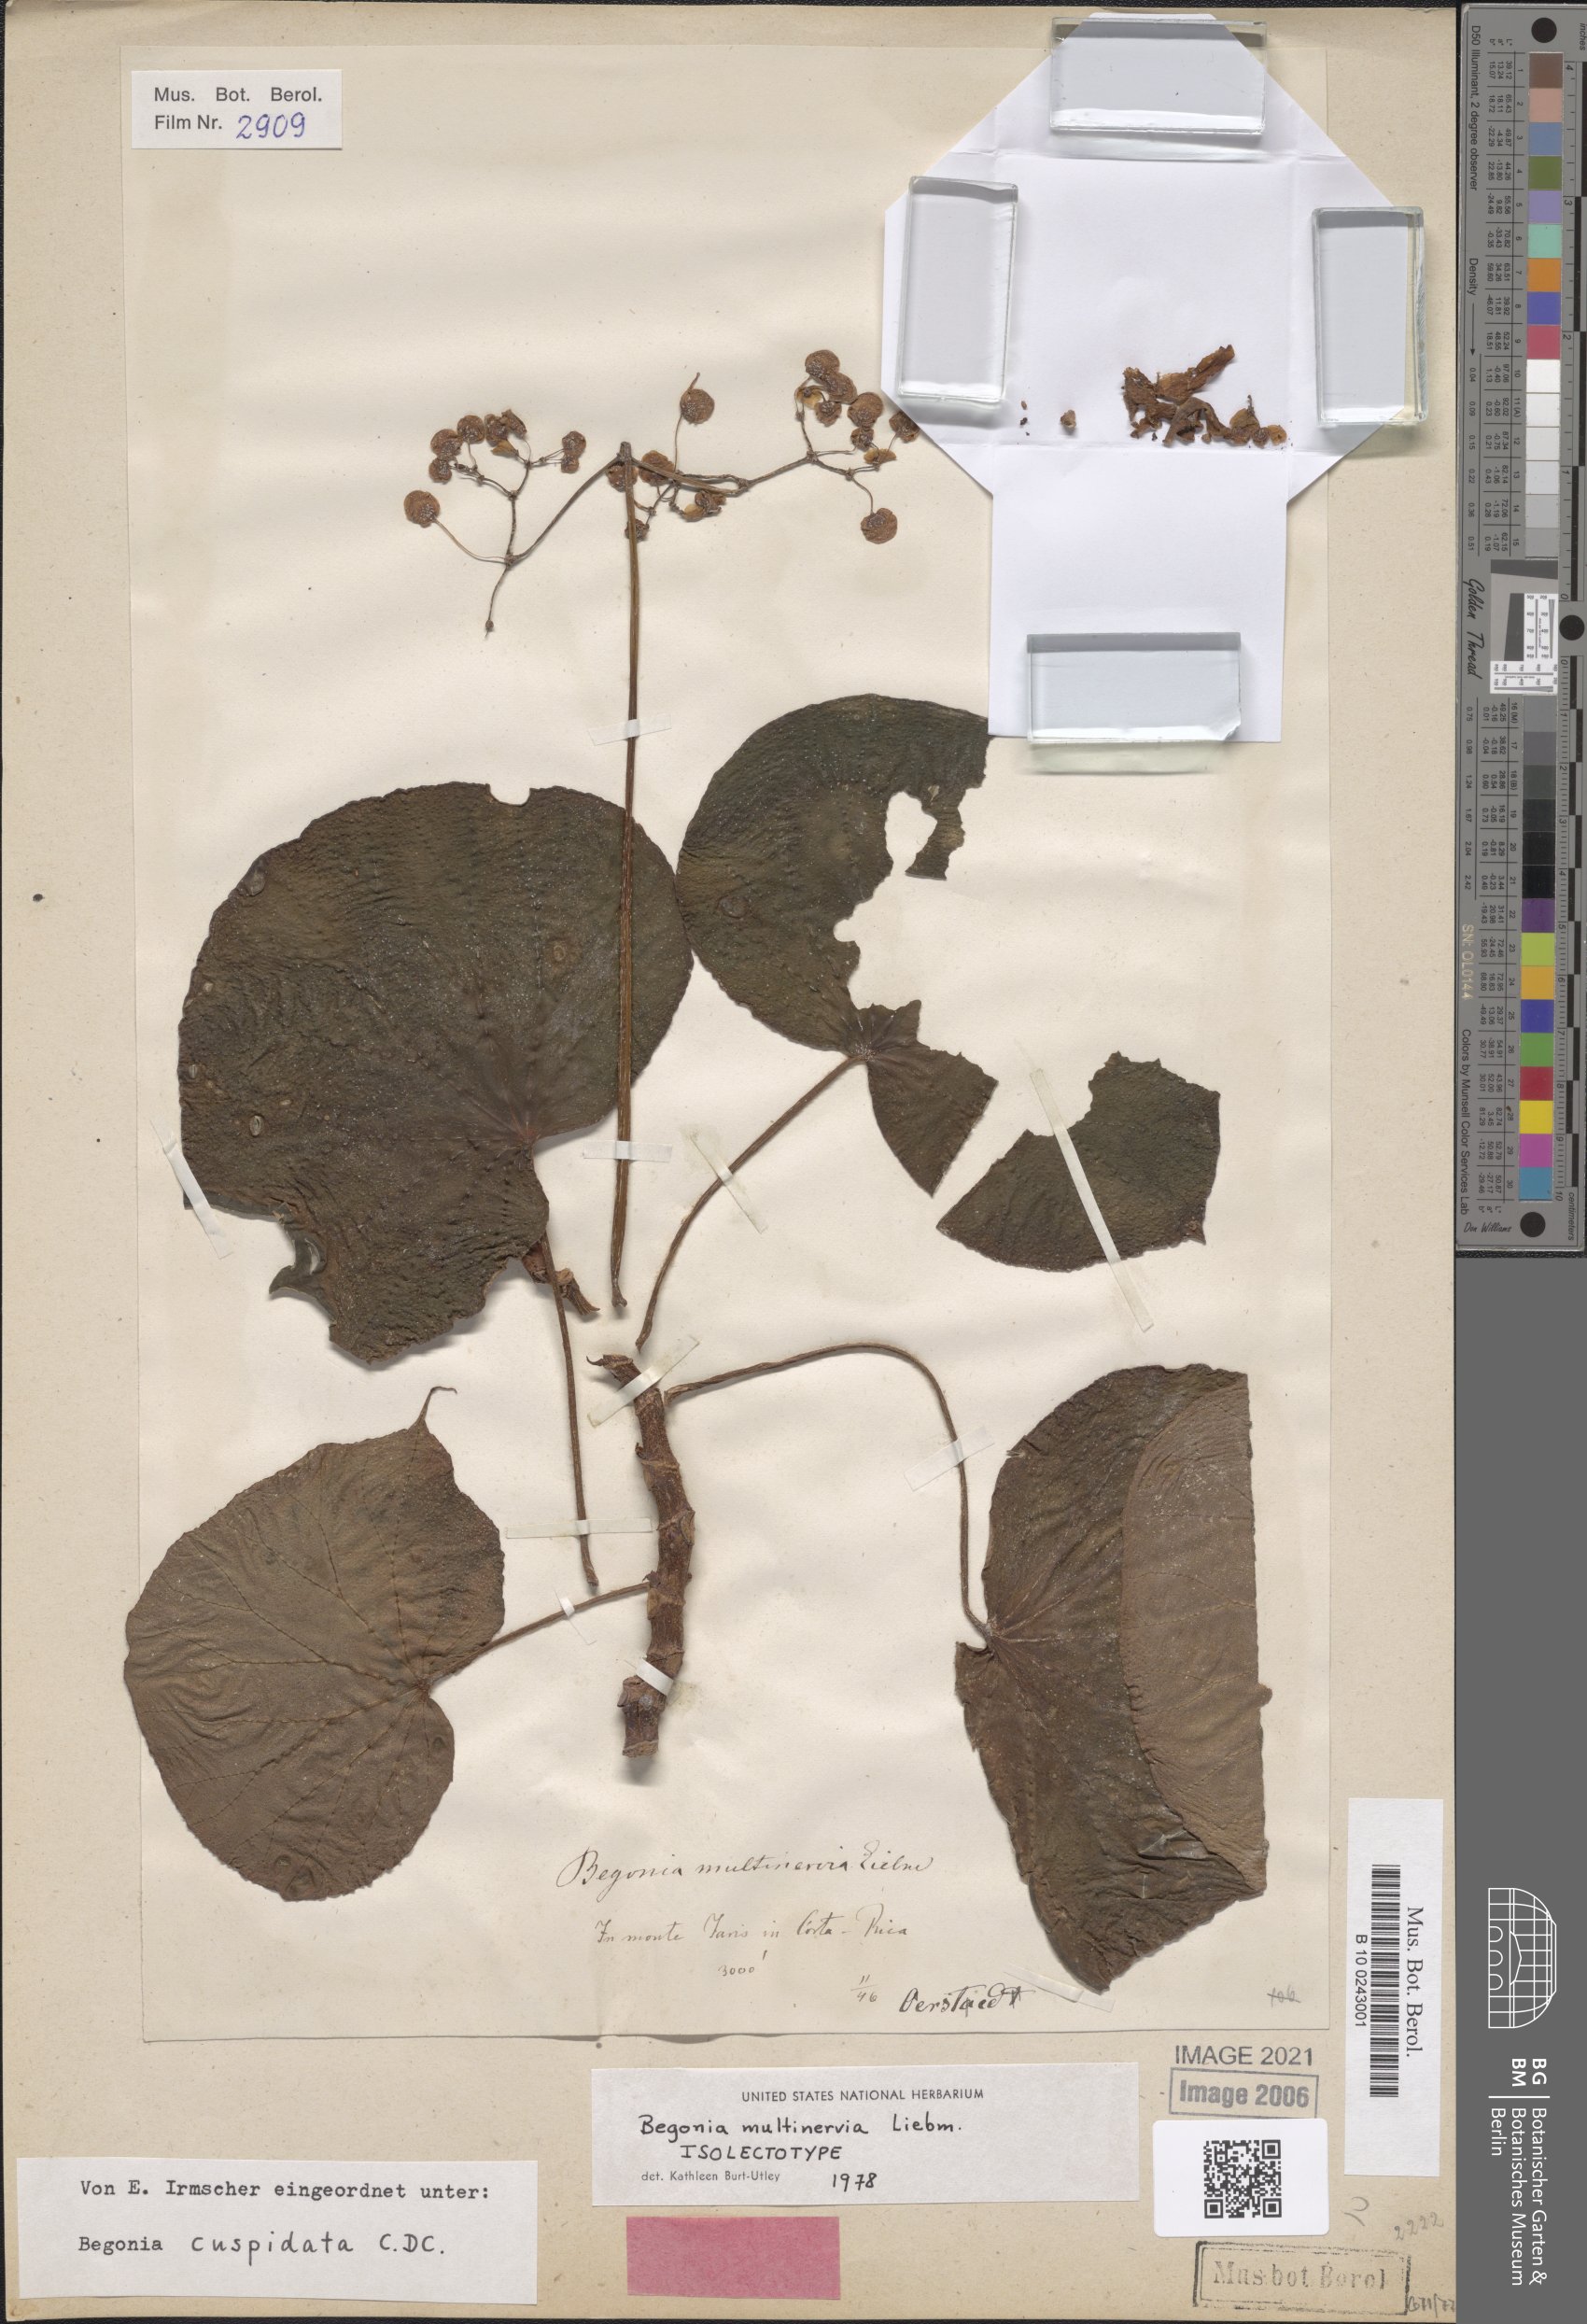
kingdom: Plantae
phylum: Tracheophyta
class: Magnoliopsida
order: Cucurbitales
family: Begoniaceae
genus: Begonia
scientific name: Begonia multinervia
